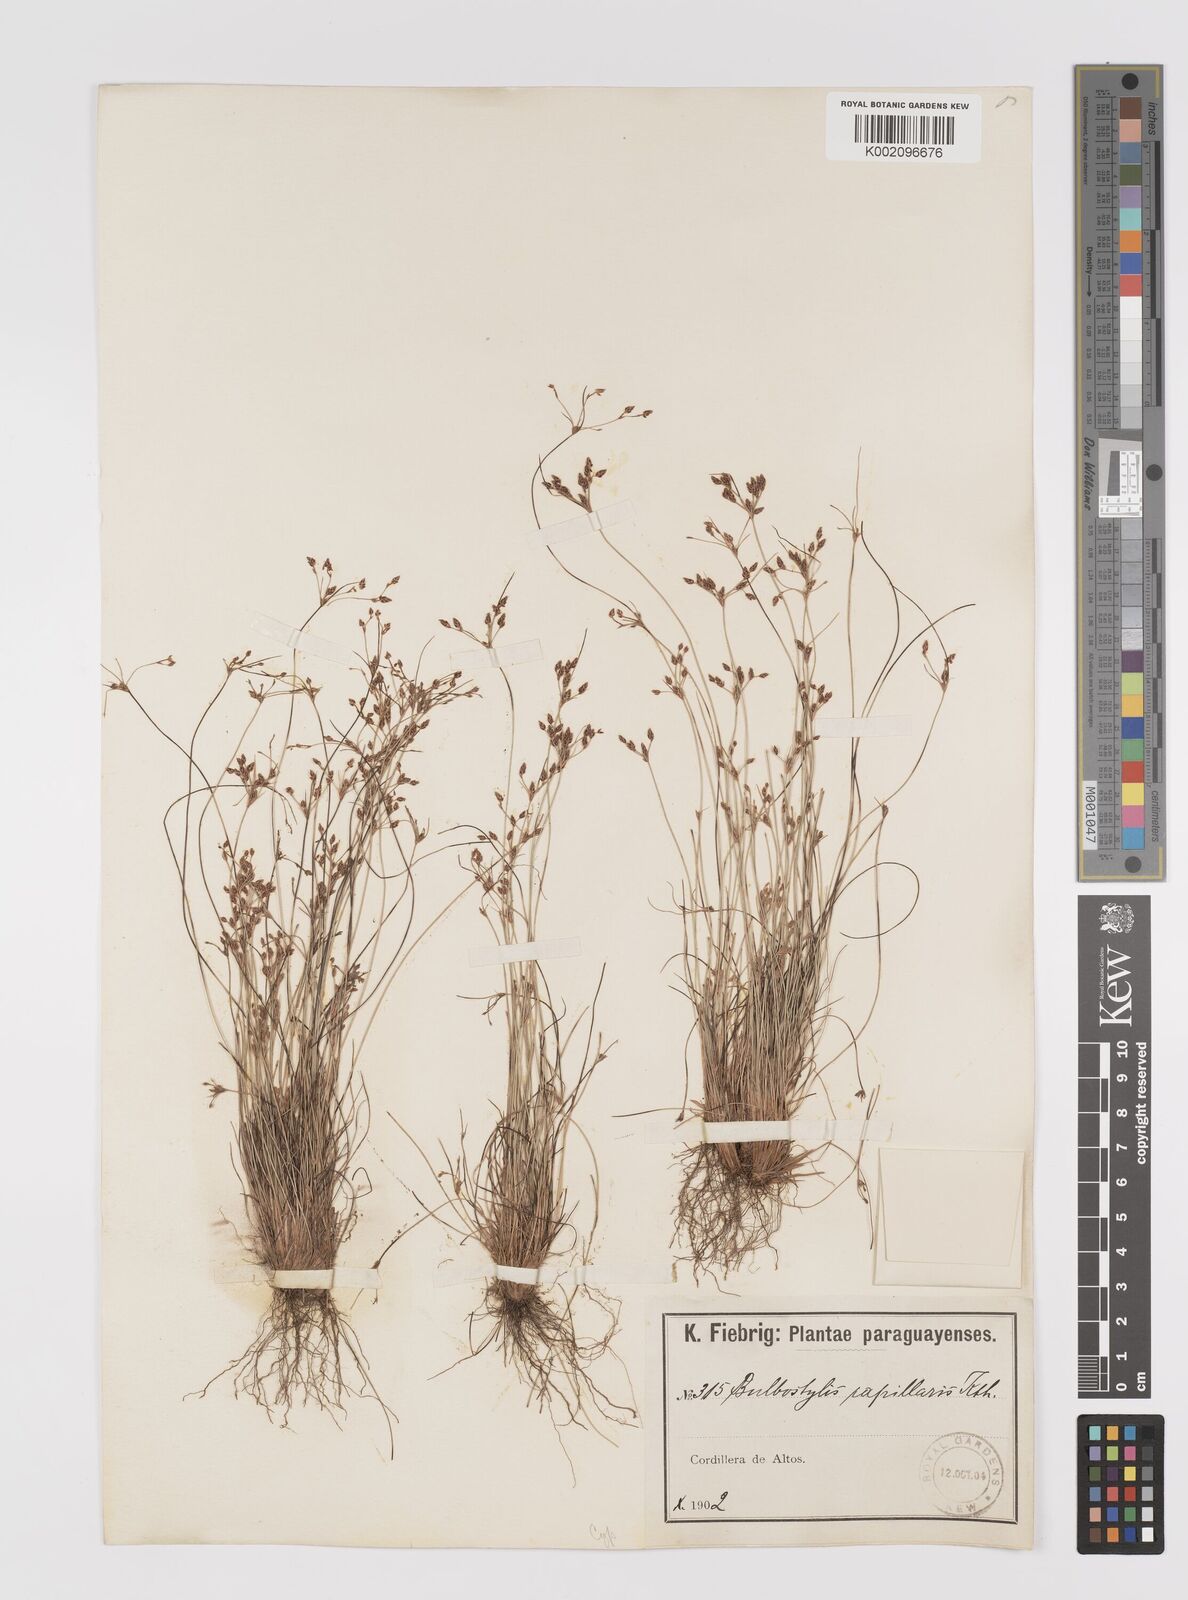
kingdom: Plantae
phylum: Tracheophyta
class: Liliopsida
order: Poales
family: Cyperaceae
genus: Bulbostylis
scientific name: Bulbostylis capillaris
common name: Densetuft hairsedge
